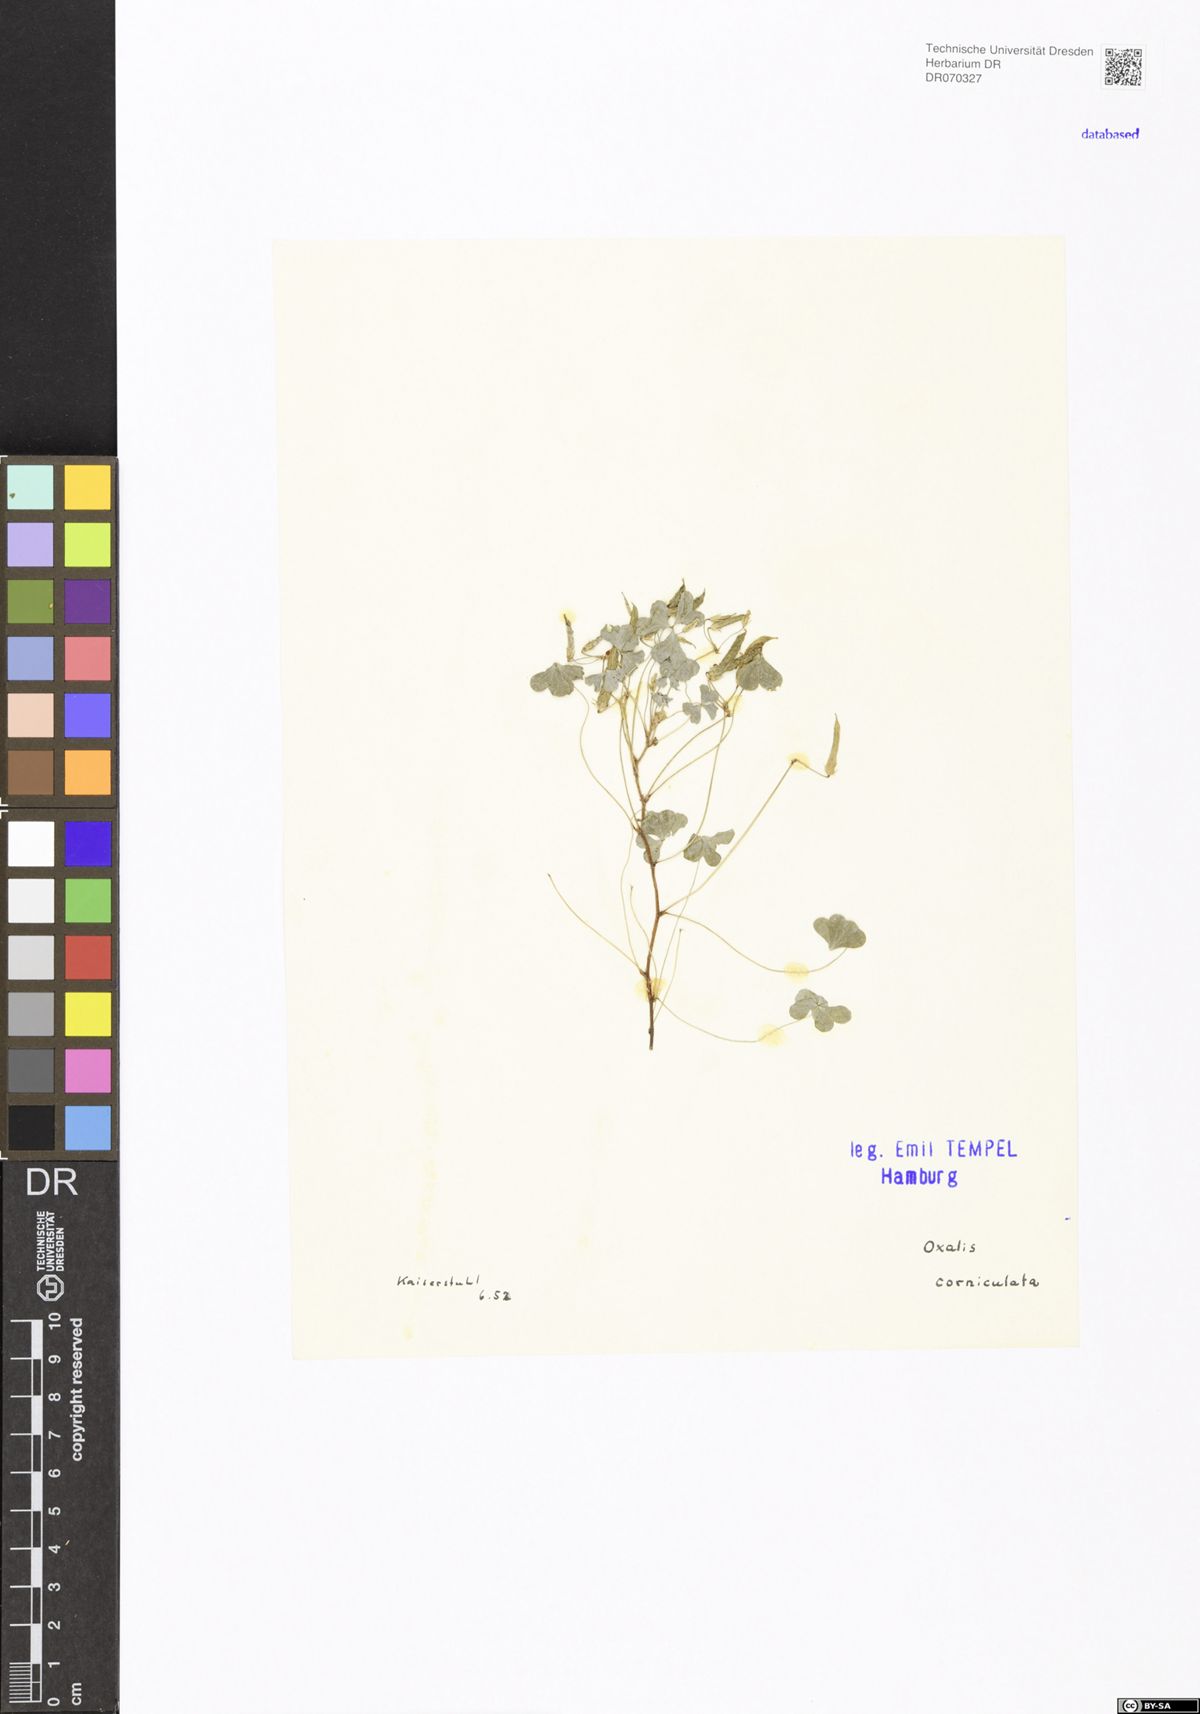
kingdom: Plantae
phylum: Tracheophyta
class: Magnoliopsida
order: Oxalidales
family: Oxalidaceae
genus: Oxalis
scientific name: Oxalis corniculata
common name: Procumbent yellow-sorrel
